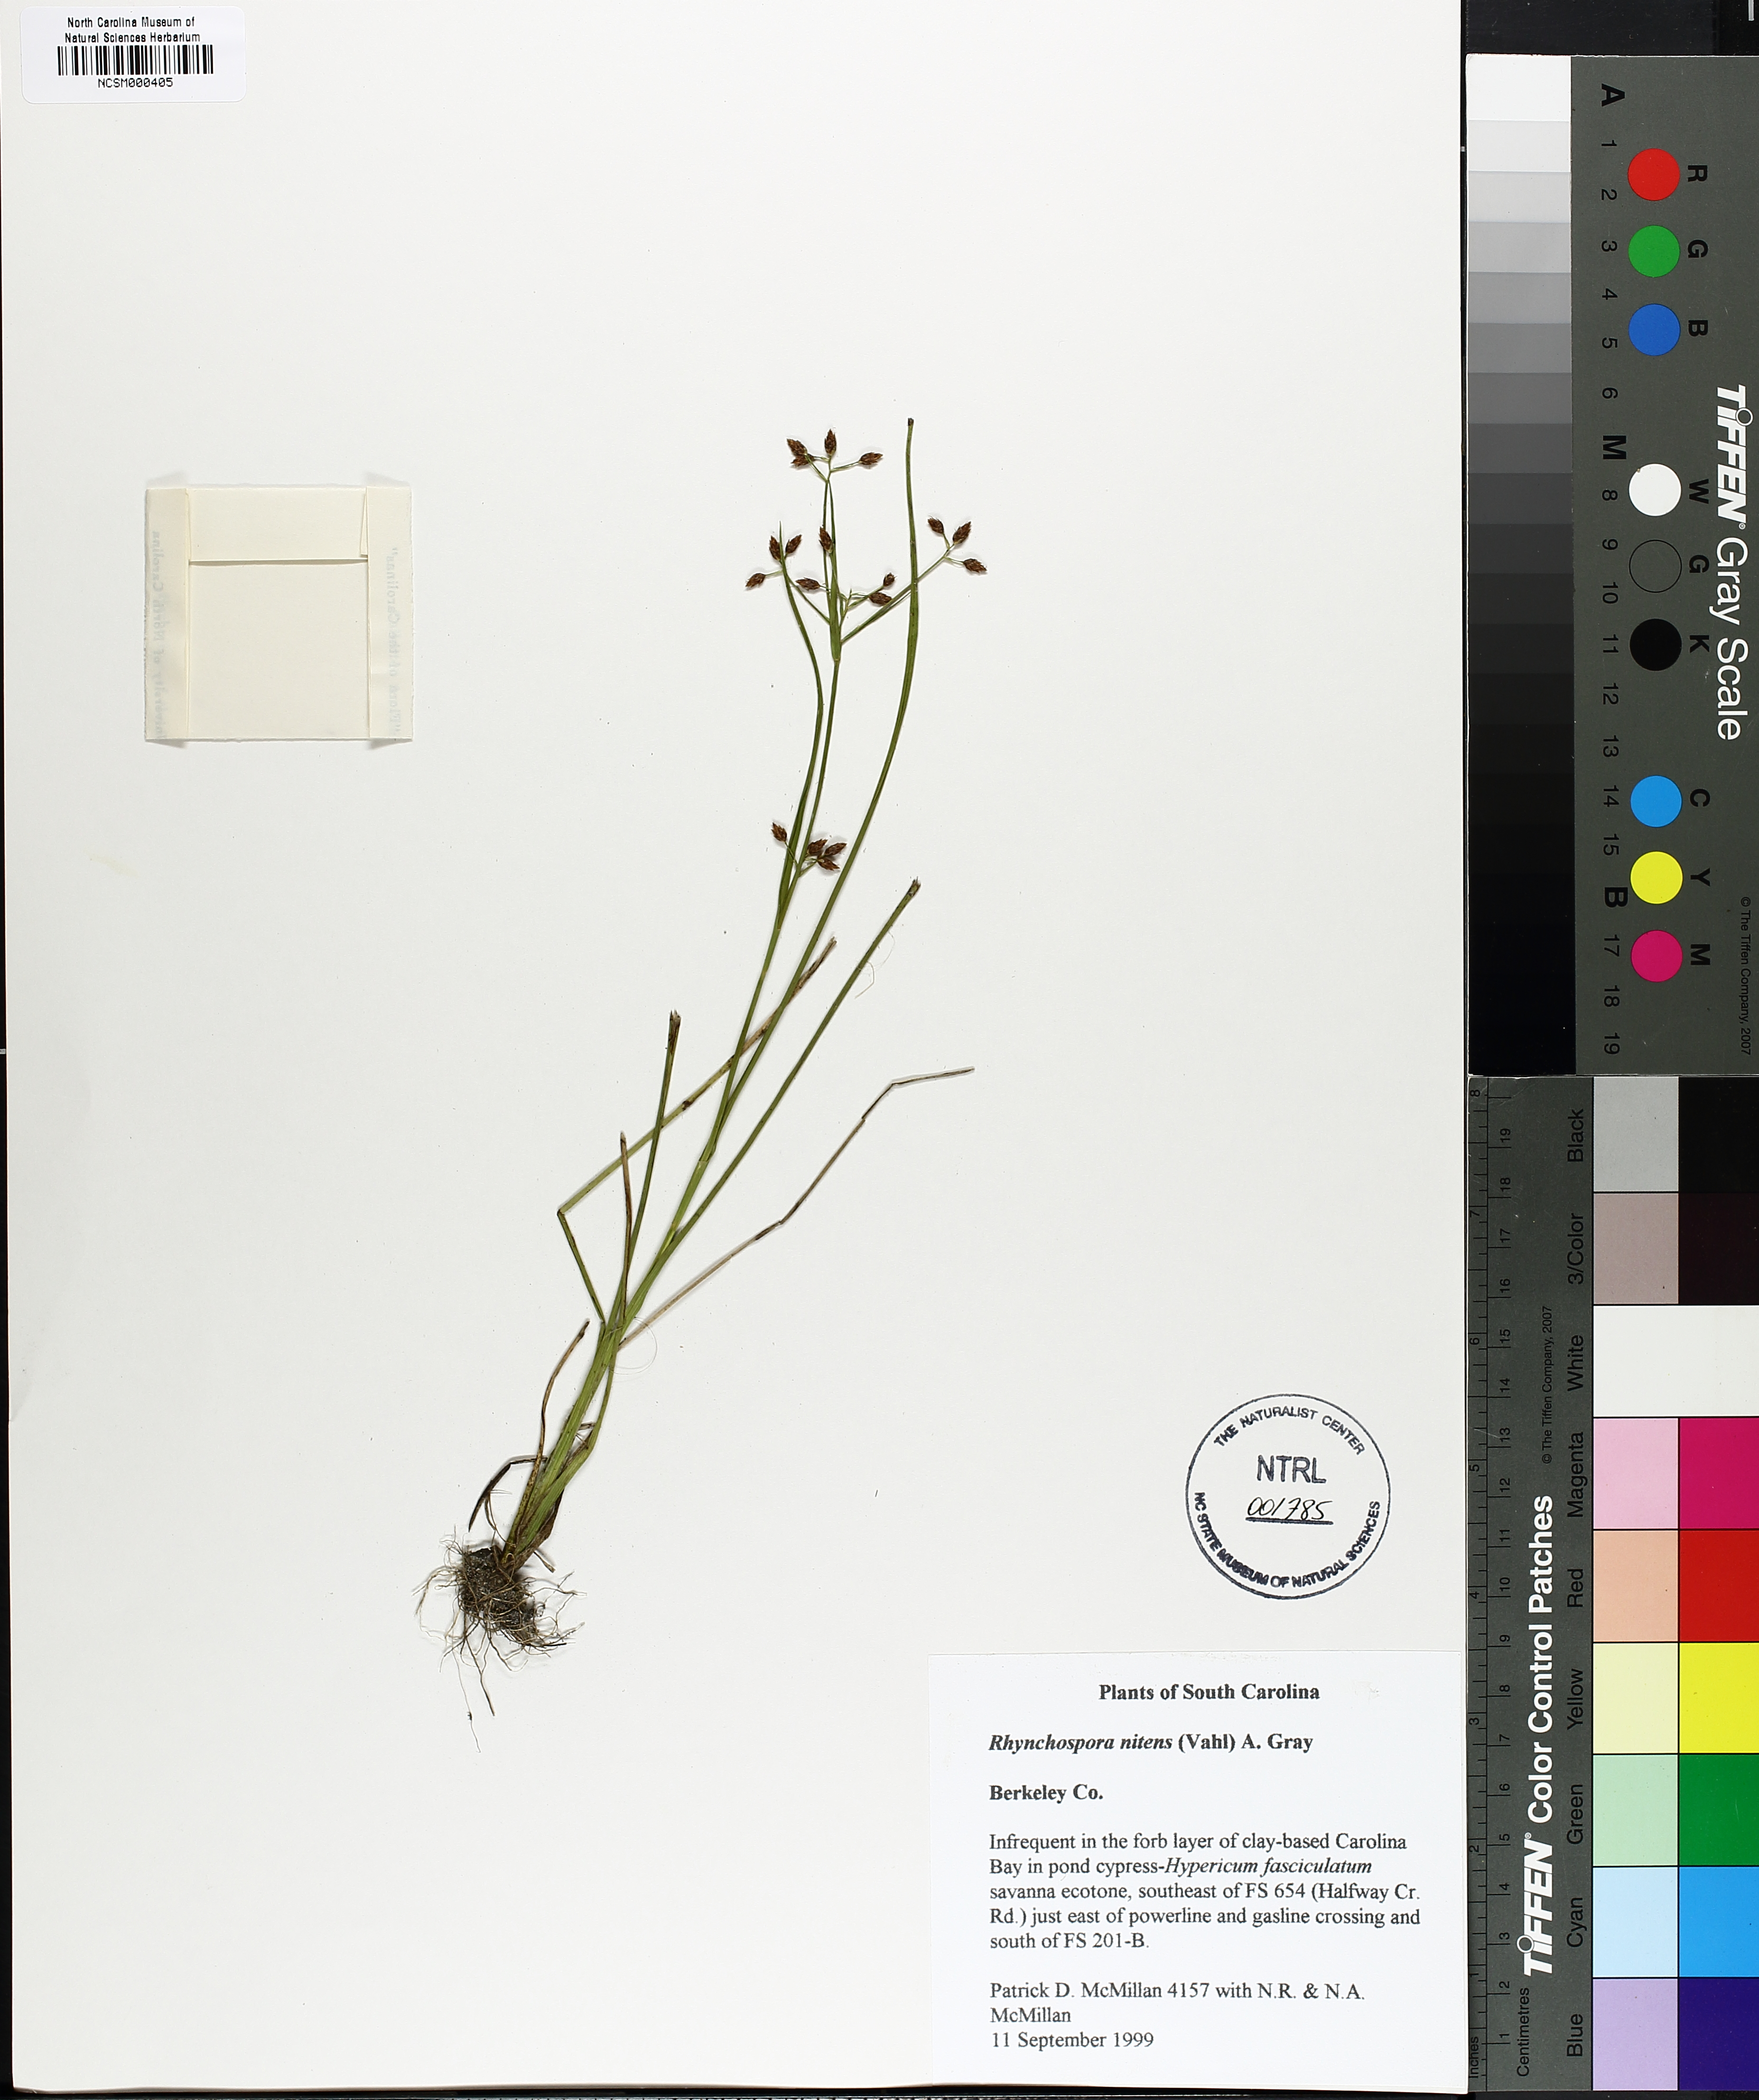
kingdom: Plantae
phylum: Tracheophyta
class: Liliopsida
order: Poales
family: Cyperaceae
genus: Rhynchospora
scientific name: Rhynchospora nitens
